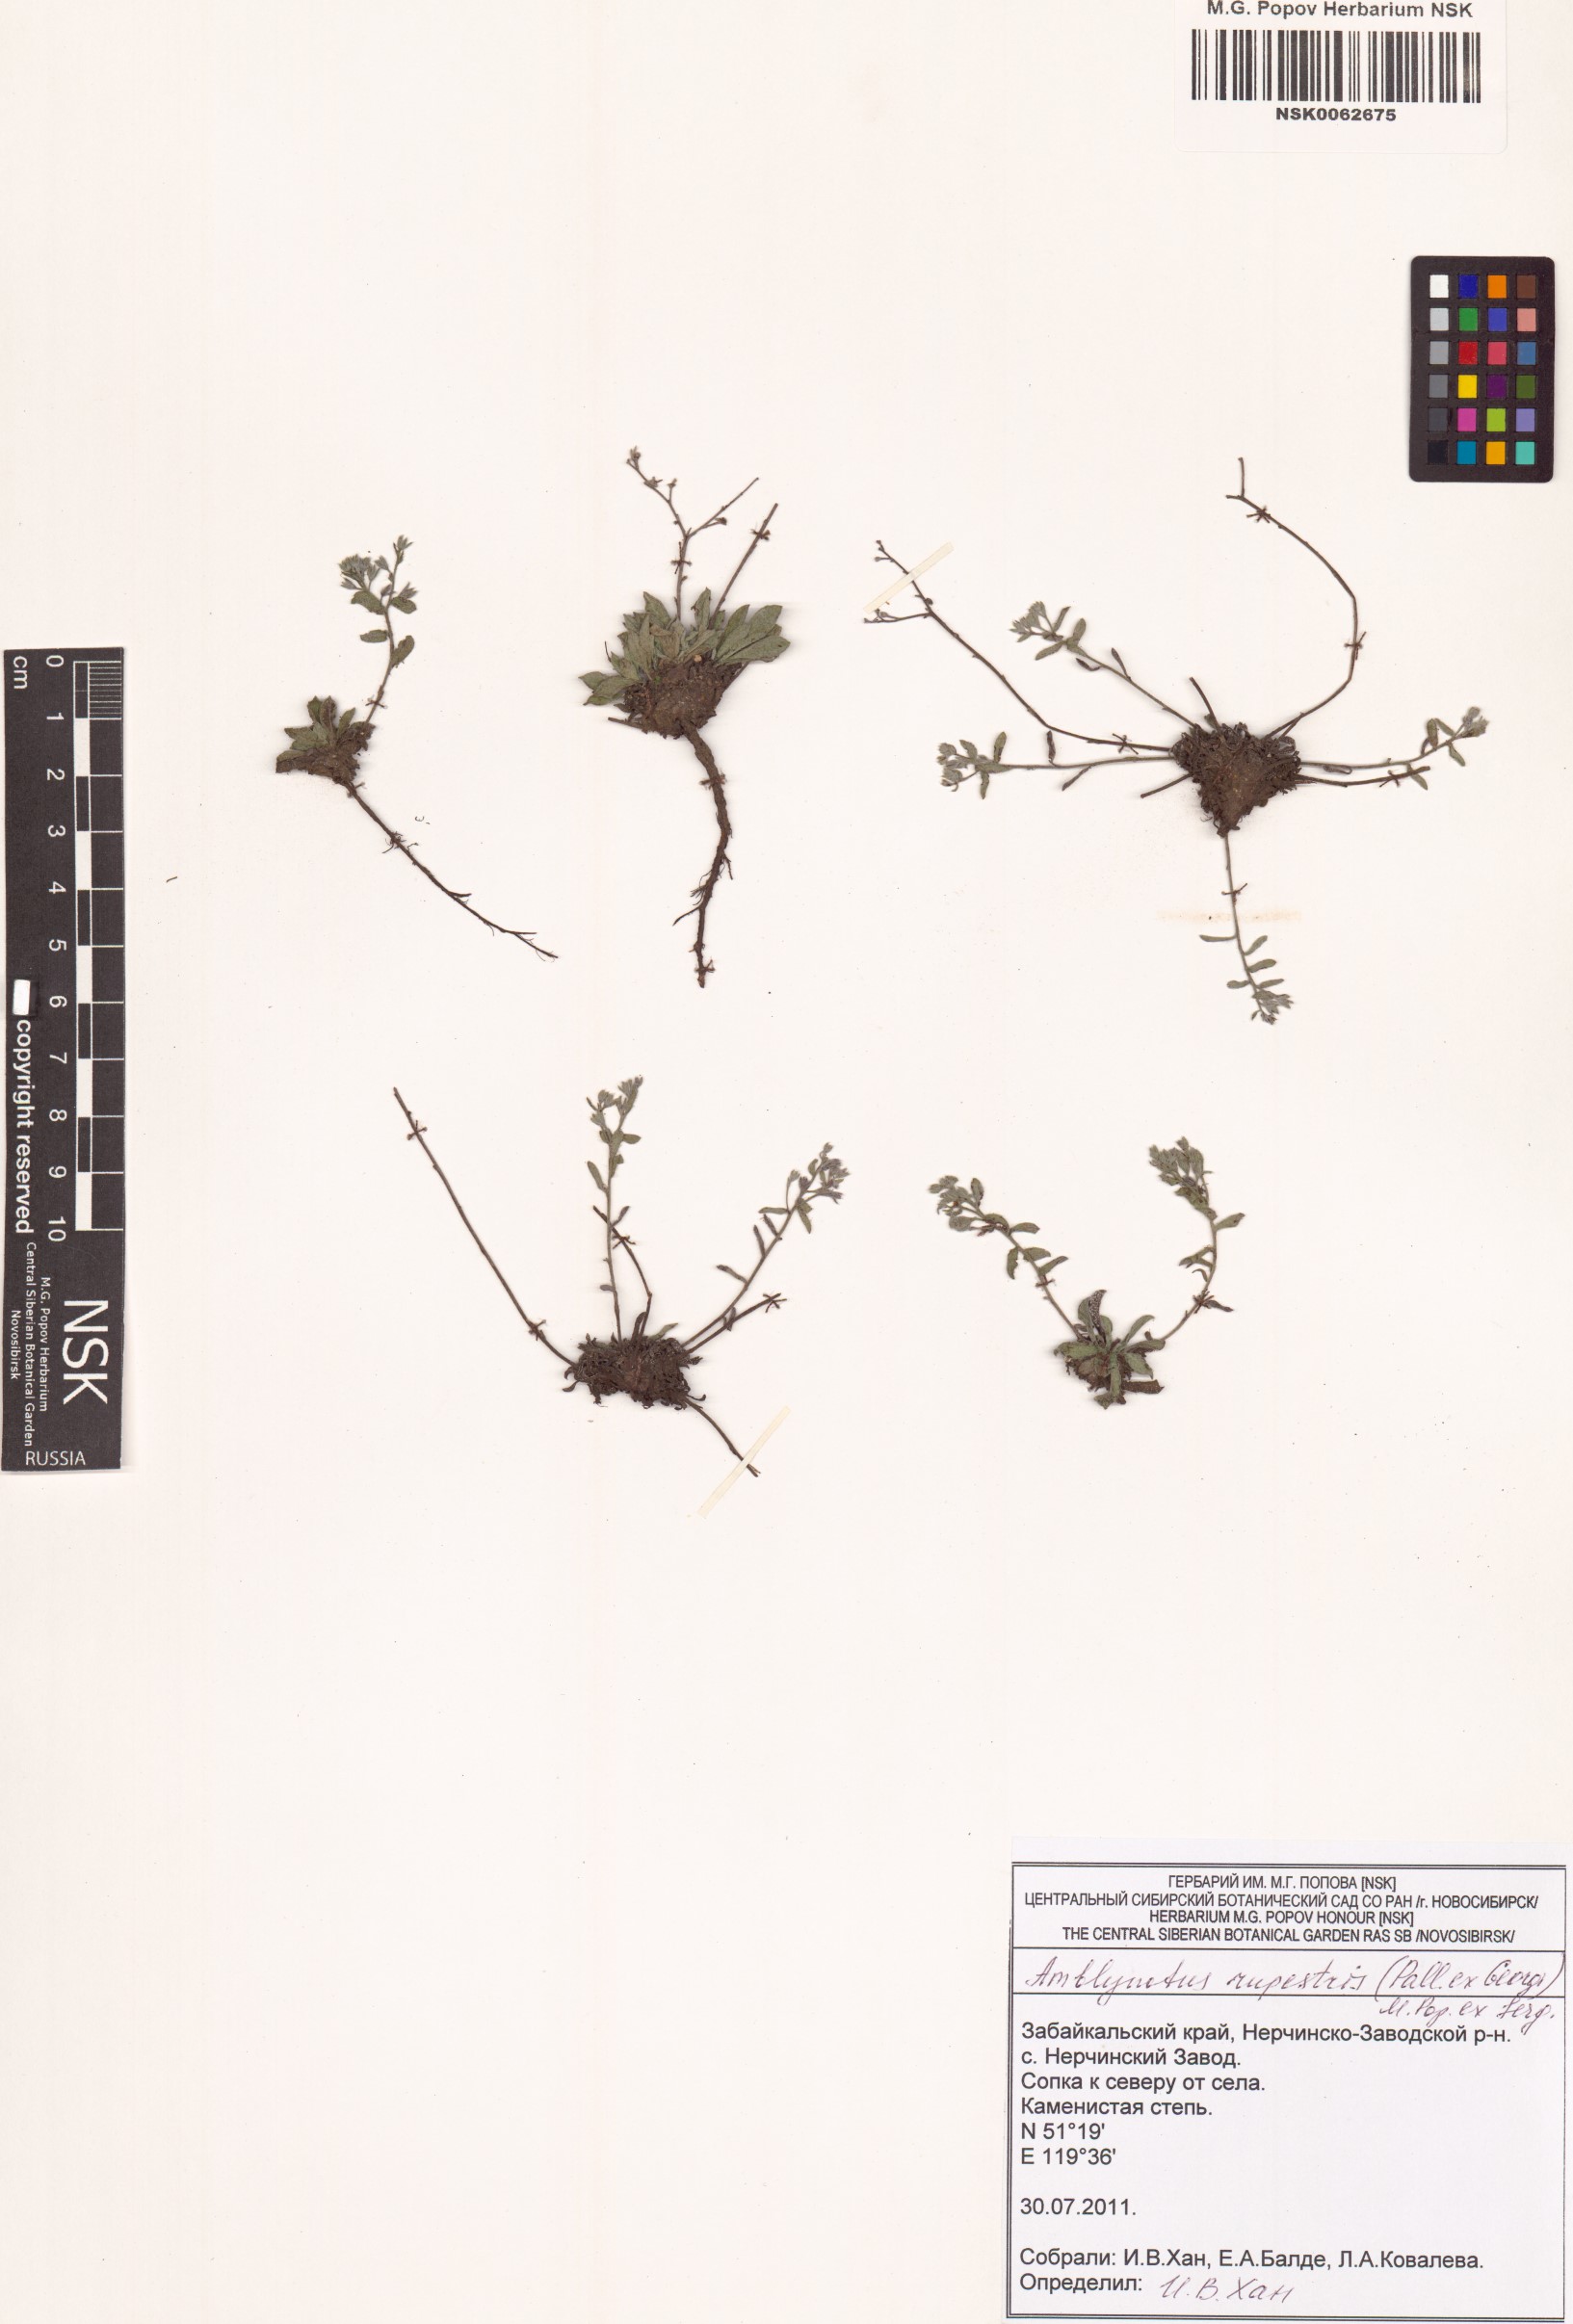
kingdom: Plantae
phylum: Tracheophyta
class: Magnoliopsida
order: Boraginales
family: Boraginaceae
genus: Eritrichium
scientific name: Eritrichium rupestre
